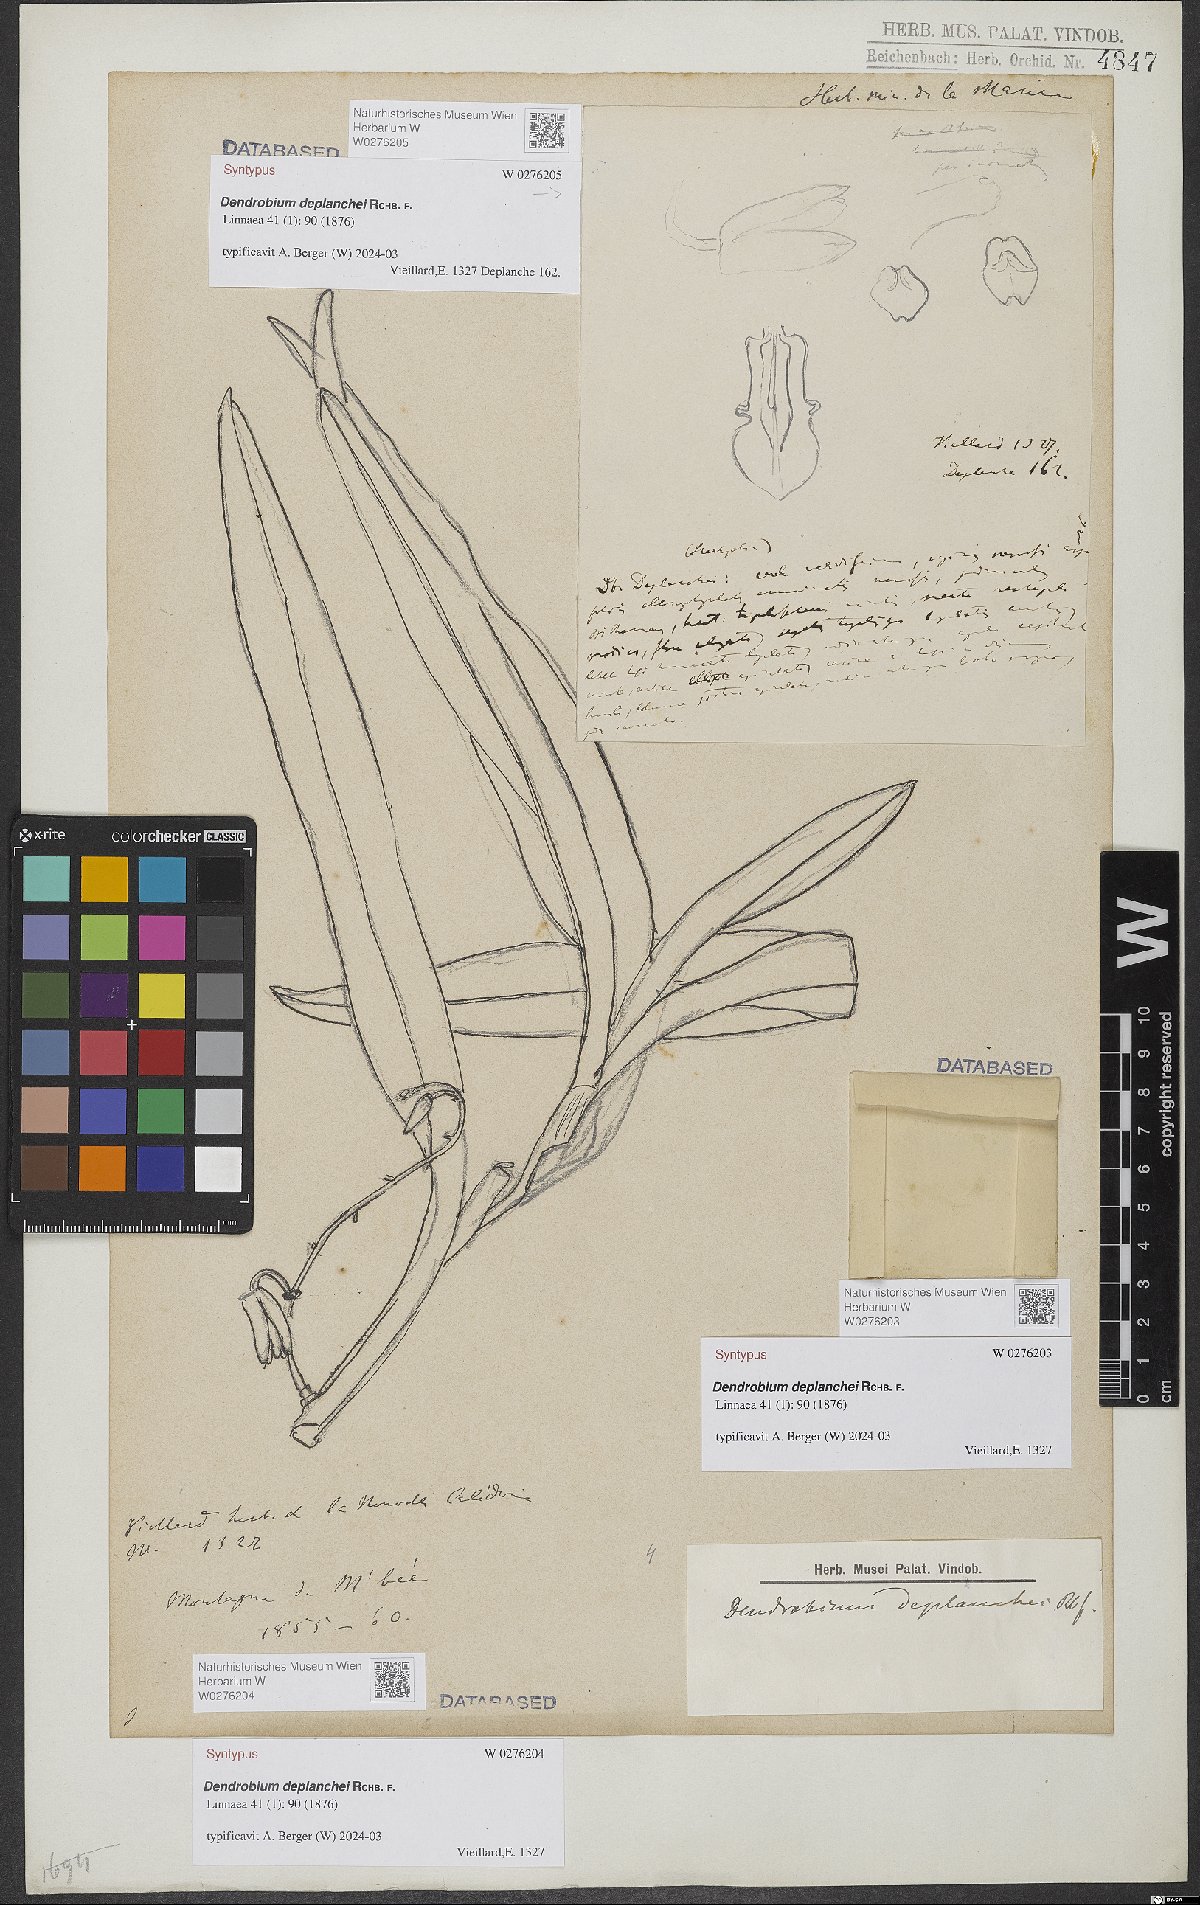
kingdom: Plantae
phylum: Tracheophyta
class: Liliopsida
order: Asparagales
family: Orchidaceae
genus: Dendrobium
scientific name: Dendrobium deplanchei
